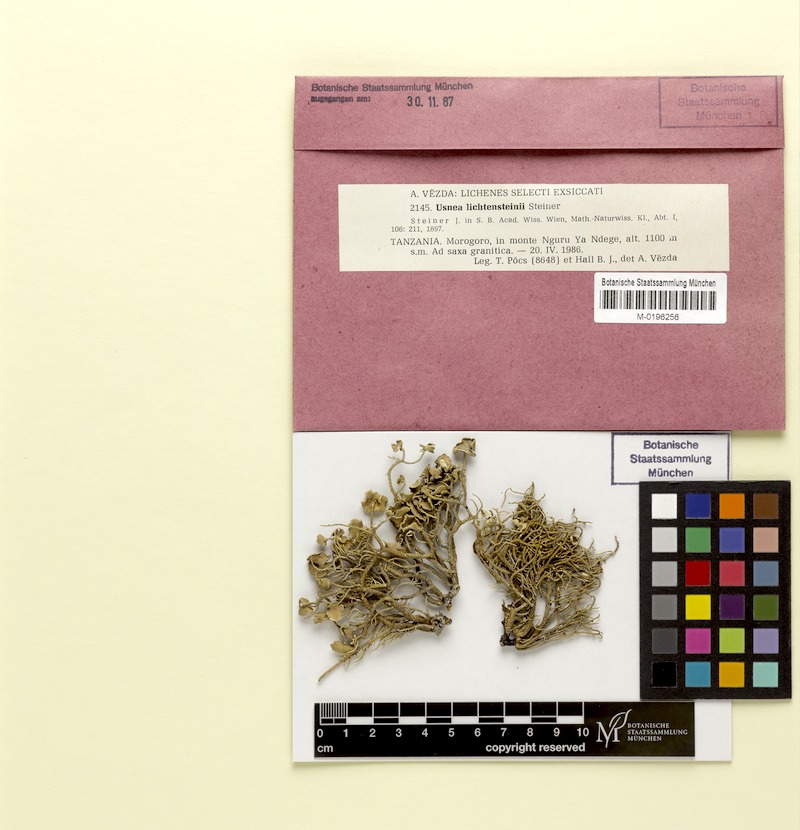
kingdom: Fungi
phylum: Ascomycota
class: Lecanoromycetes
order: Lecanorales
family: Parmeliaceae
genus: Usnea
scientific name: Usnea liechtensteinii
